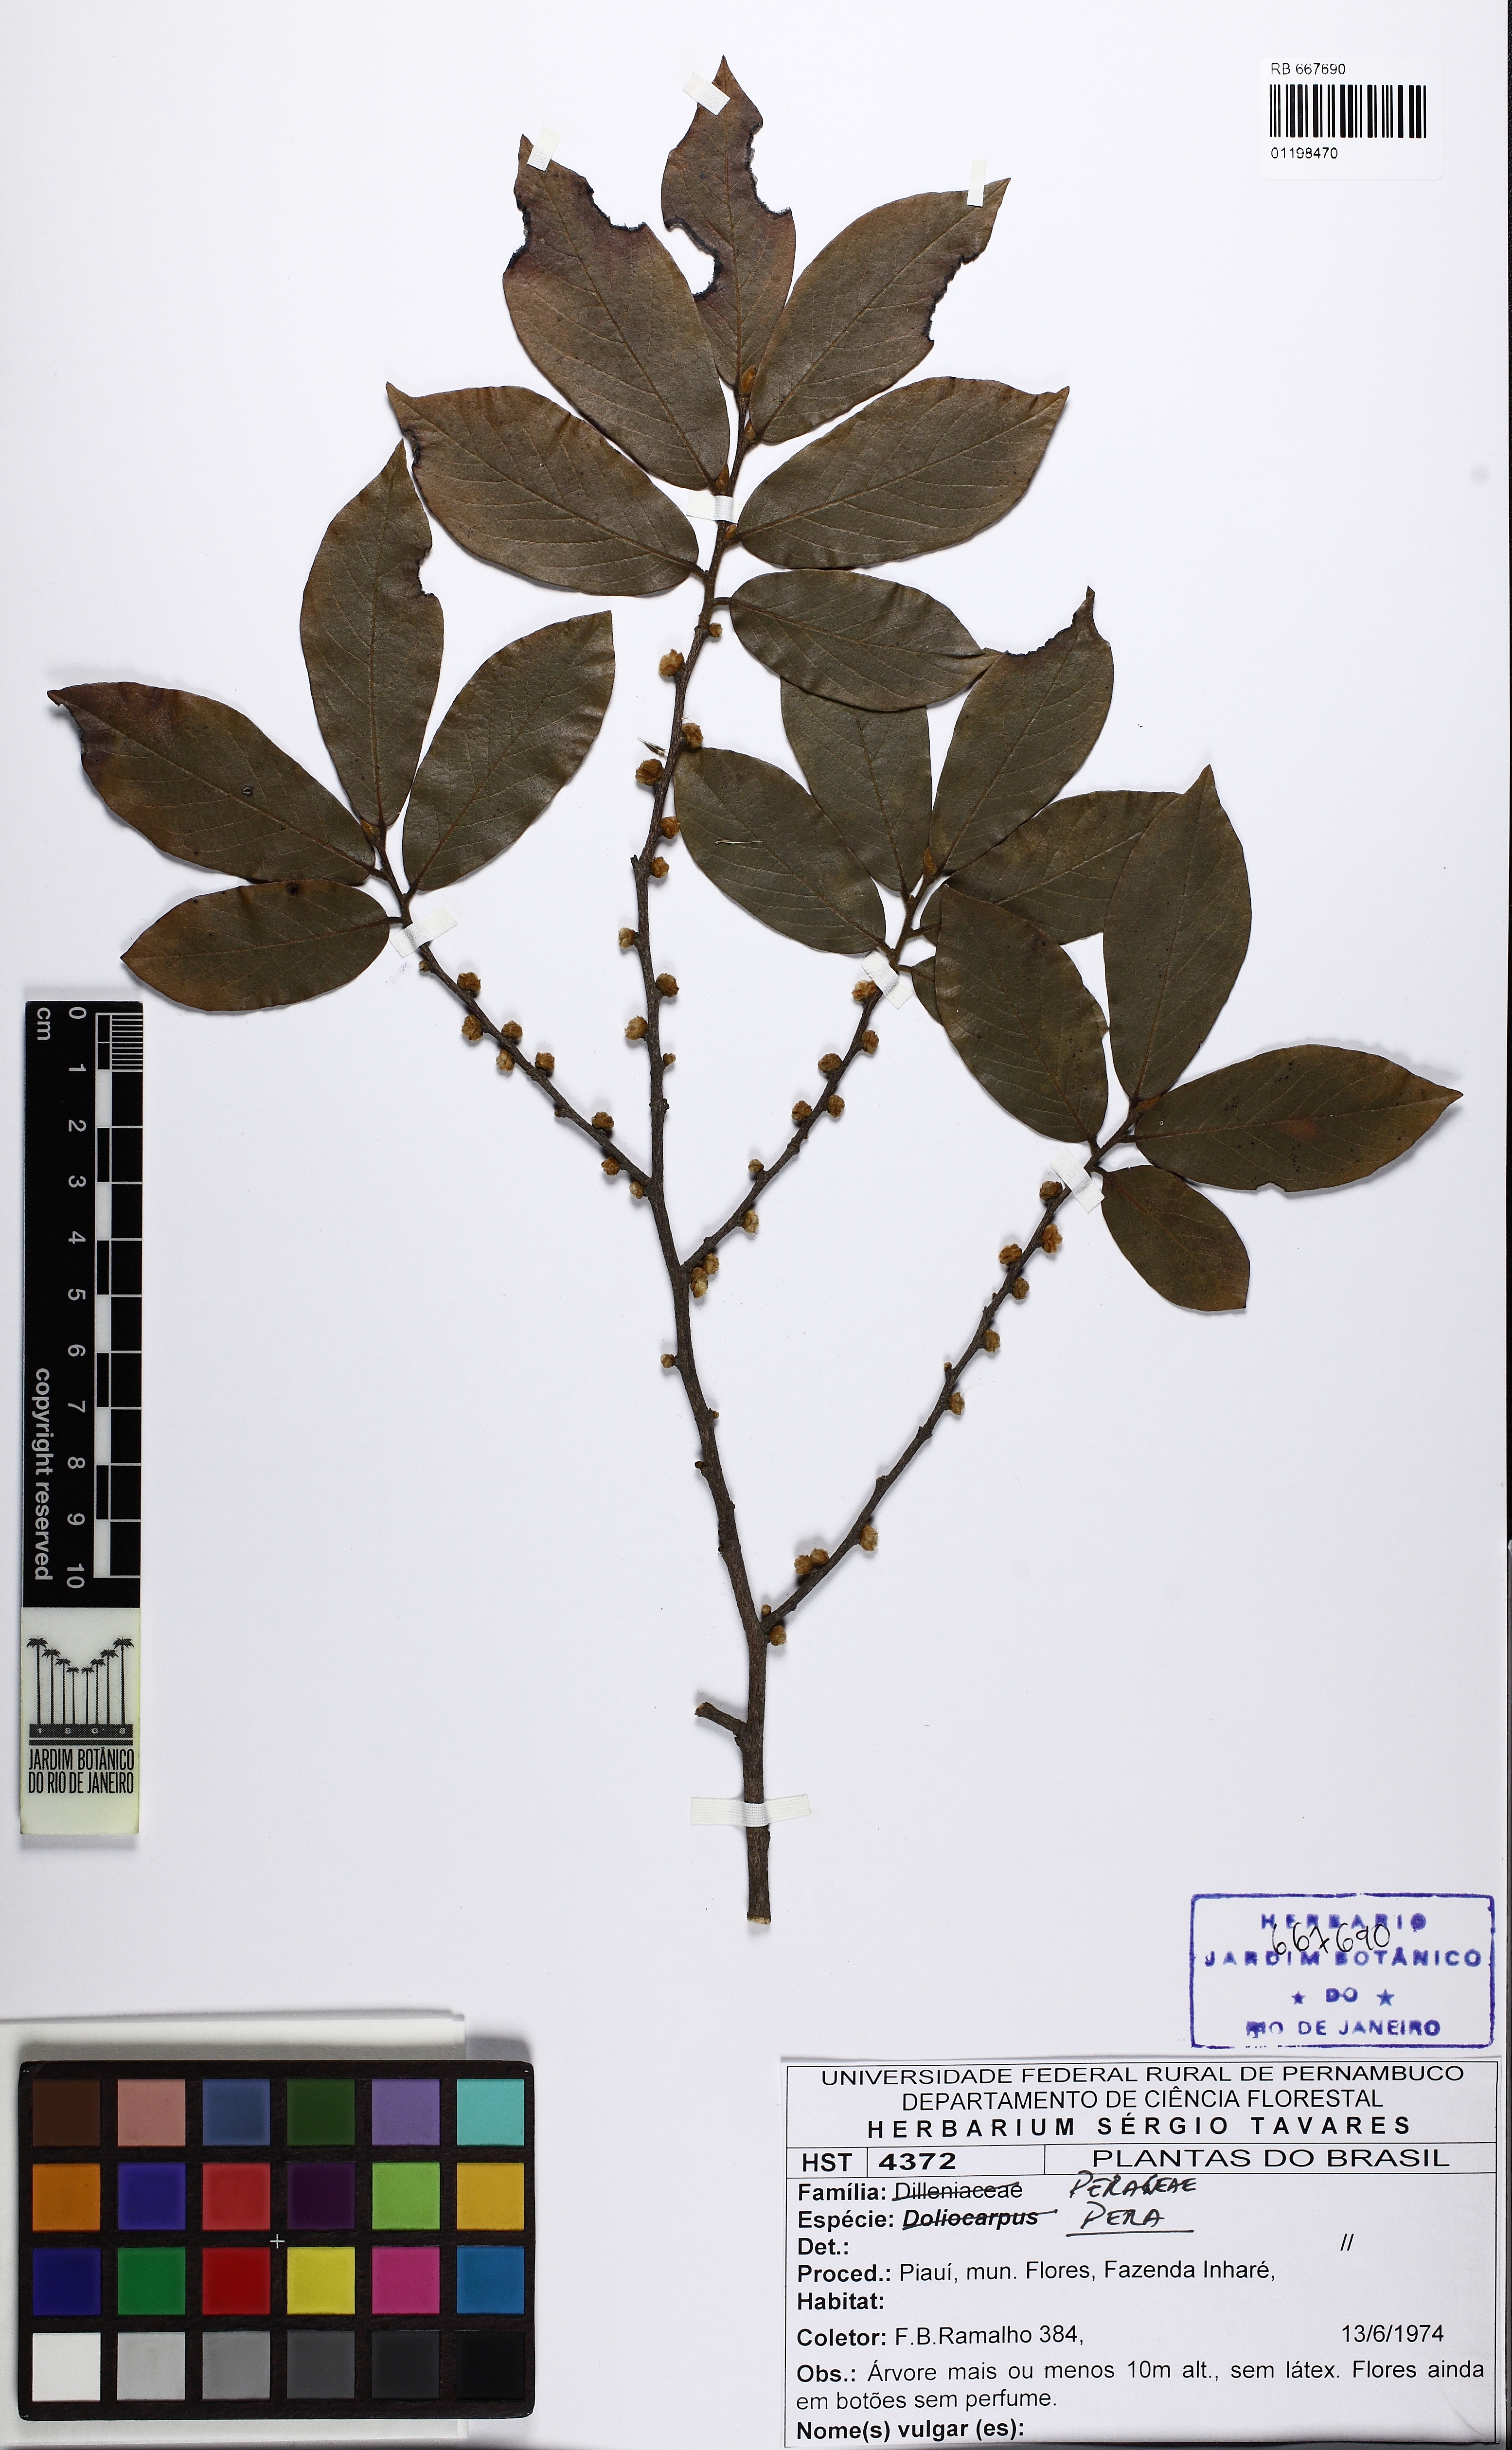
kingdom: Plantae
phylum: Tracheophyta
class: Magnoliopsida
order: Malpighiales
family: Euphorbiaceae
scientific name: Euphorbiaceae
